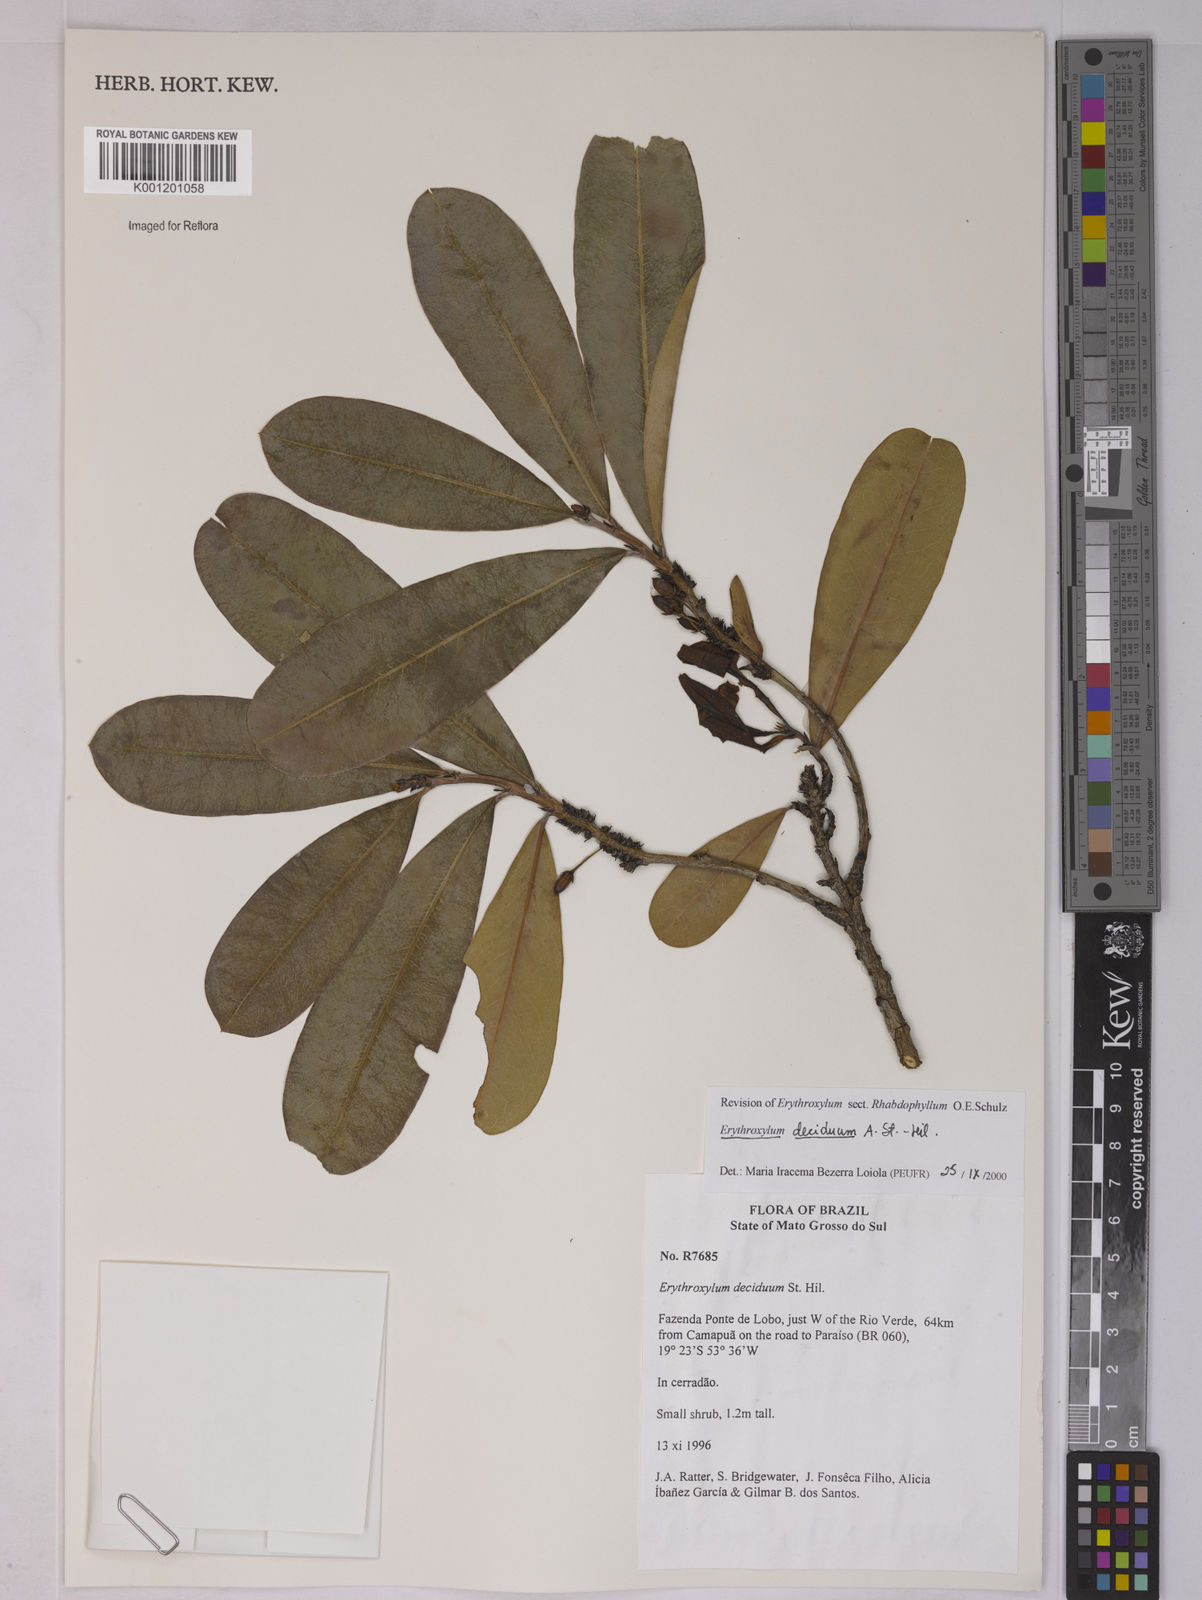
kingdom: Plantae
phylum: Tracheophyta
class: Magnoliopsida
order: Malpighiales
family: Erythroxylaceae
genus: Erythroxylum
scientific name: Erythroxylum deciduum
